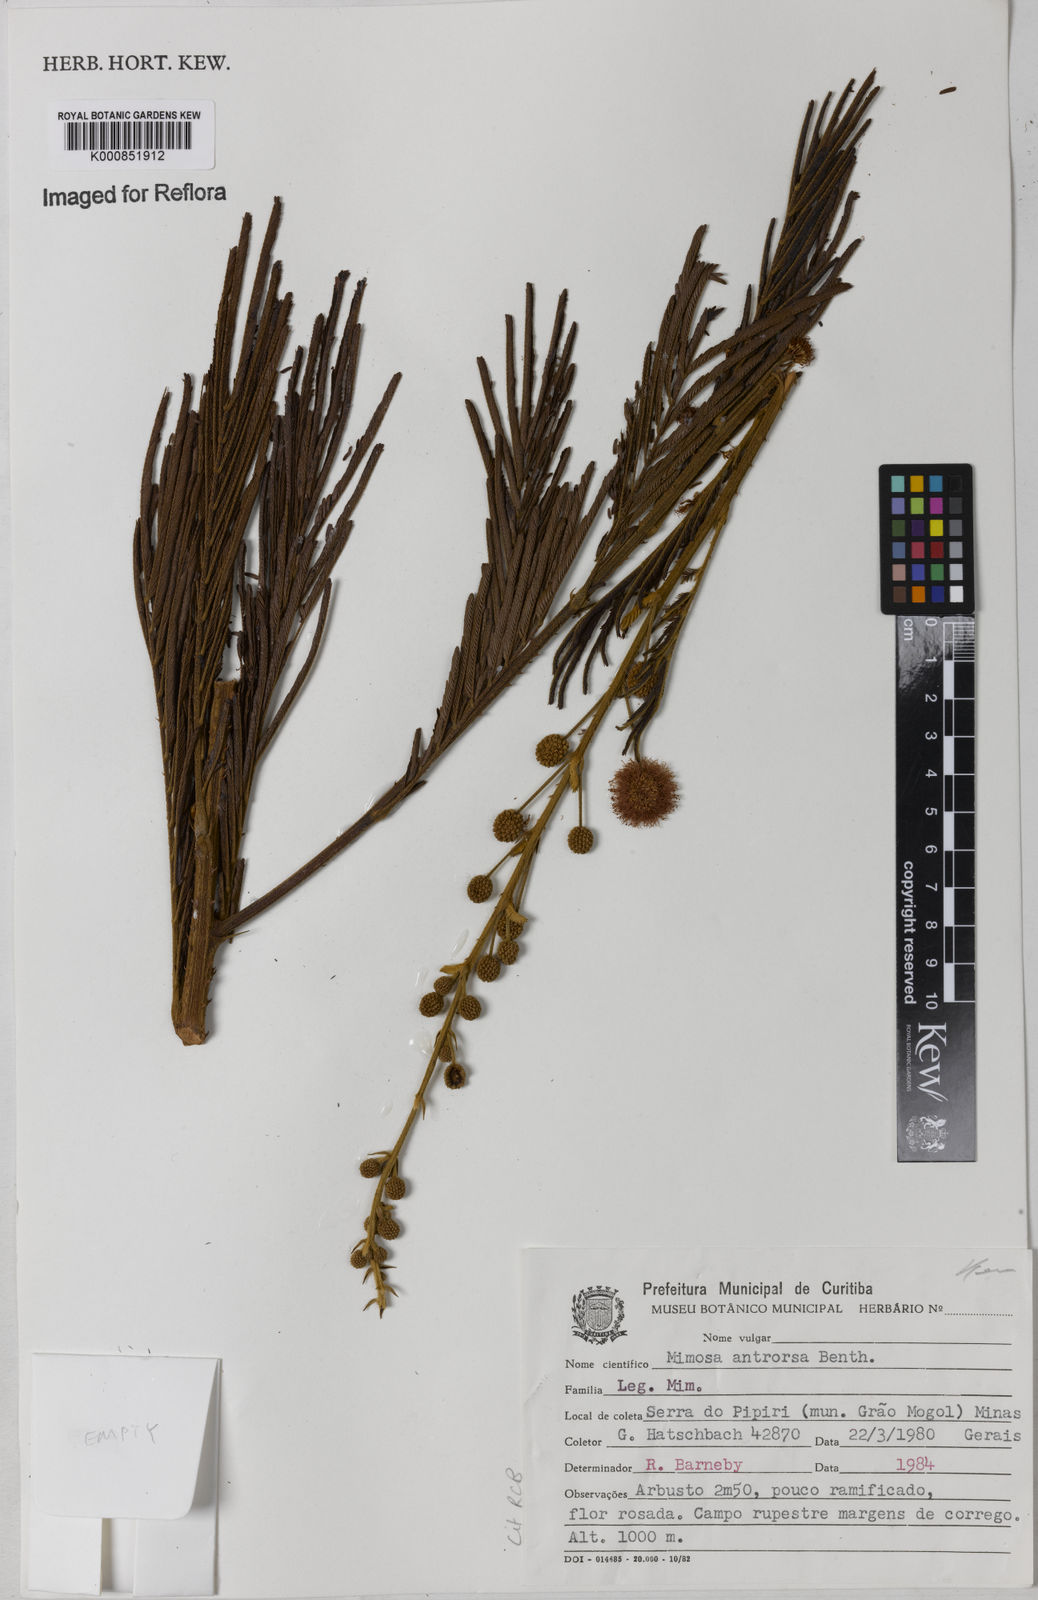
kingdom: Plantae
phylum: Tracheophyta
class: Magnoliopsida
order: Fabales
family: Fabaceae
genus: Mimosa
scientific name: Mimosa antrorsa
